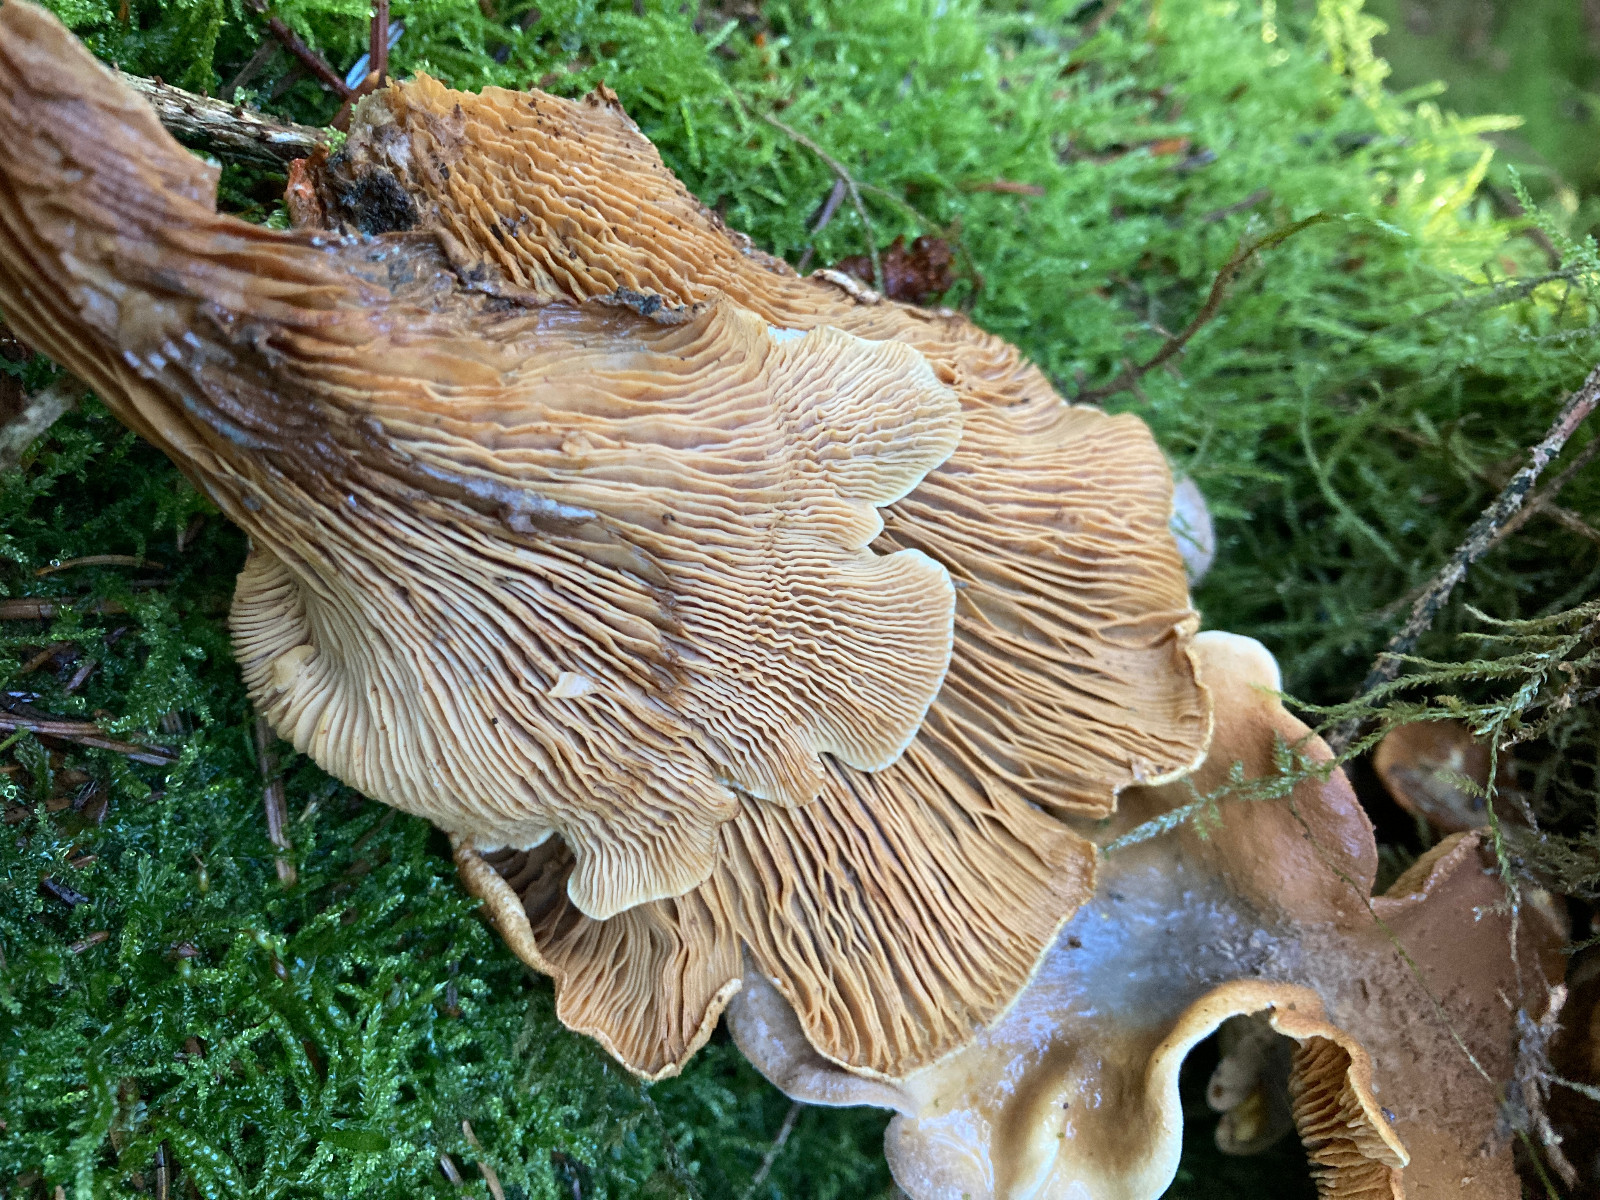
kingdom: Fungi
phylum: Basidiomycota
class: Agaricomycetes
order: Boletales
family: Tapinellaceae
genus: Tapinella
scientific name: Tapinella panuoides
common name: tømmer-viftesvamp
